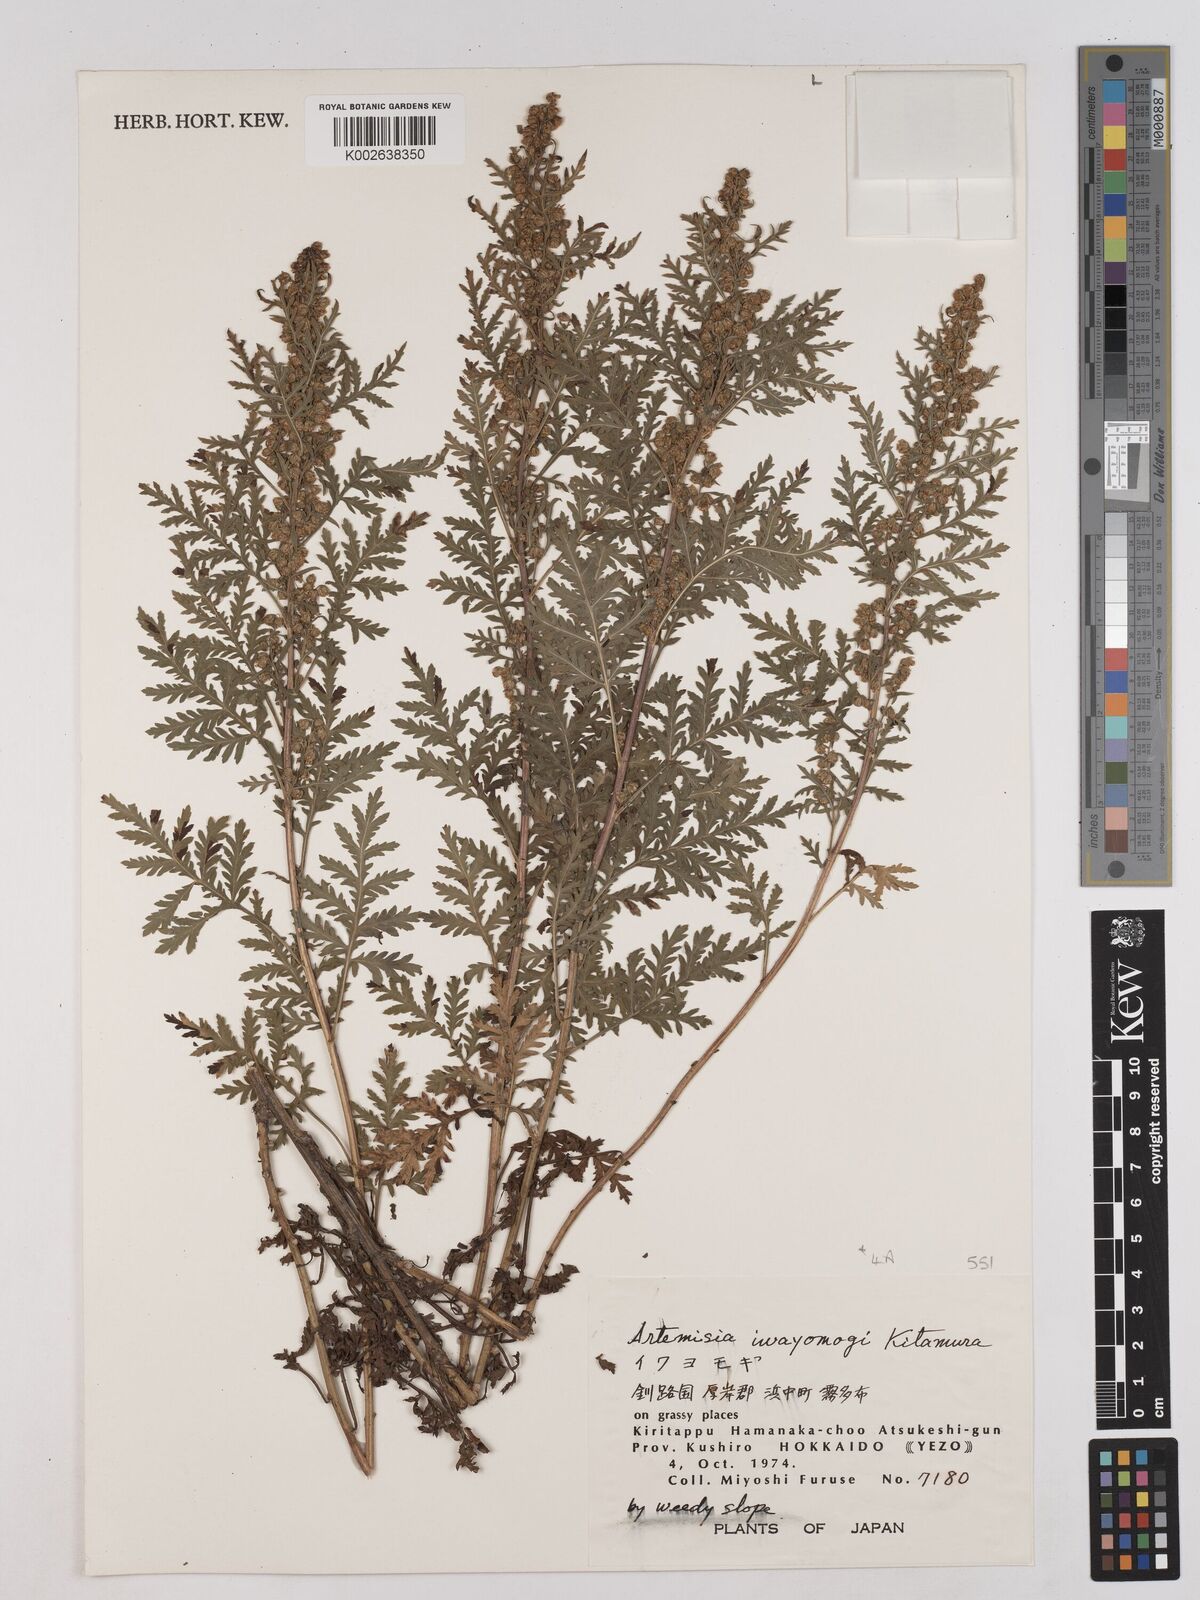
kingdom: Plantae
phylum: Tracheophyta
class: Magnoliopsida
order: Asterales
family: Asteraceae
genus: Artemisia
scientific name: Artemisia gmelinii
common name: Gmelin's wormwood
